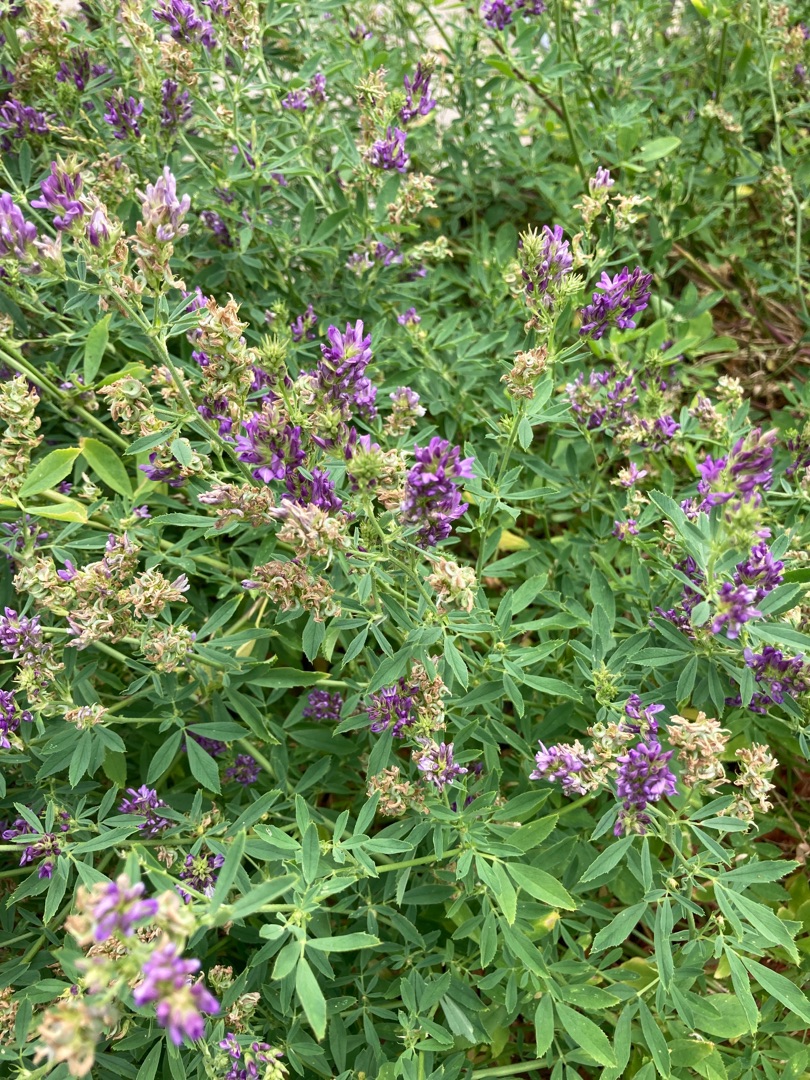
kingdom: Plantae
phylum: Tracheophyta
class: Magnoliopsida
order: Fabales
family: Fabaceae
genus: Medicago
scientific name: Medicago sativa
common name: Lucerne
